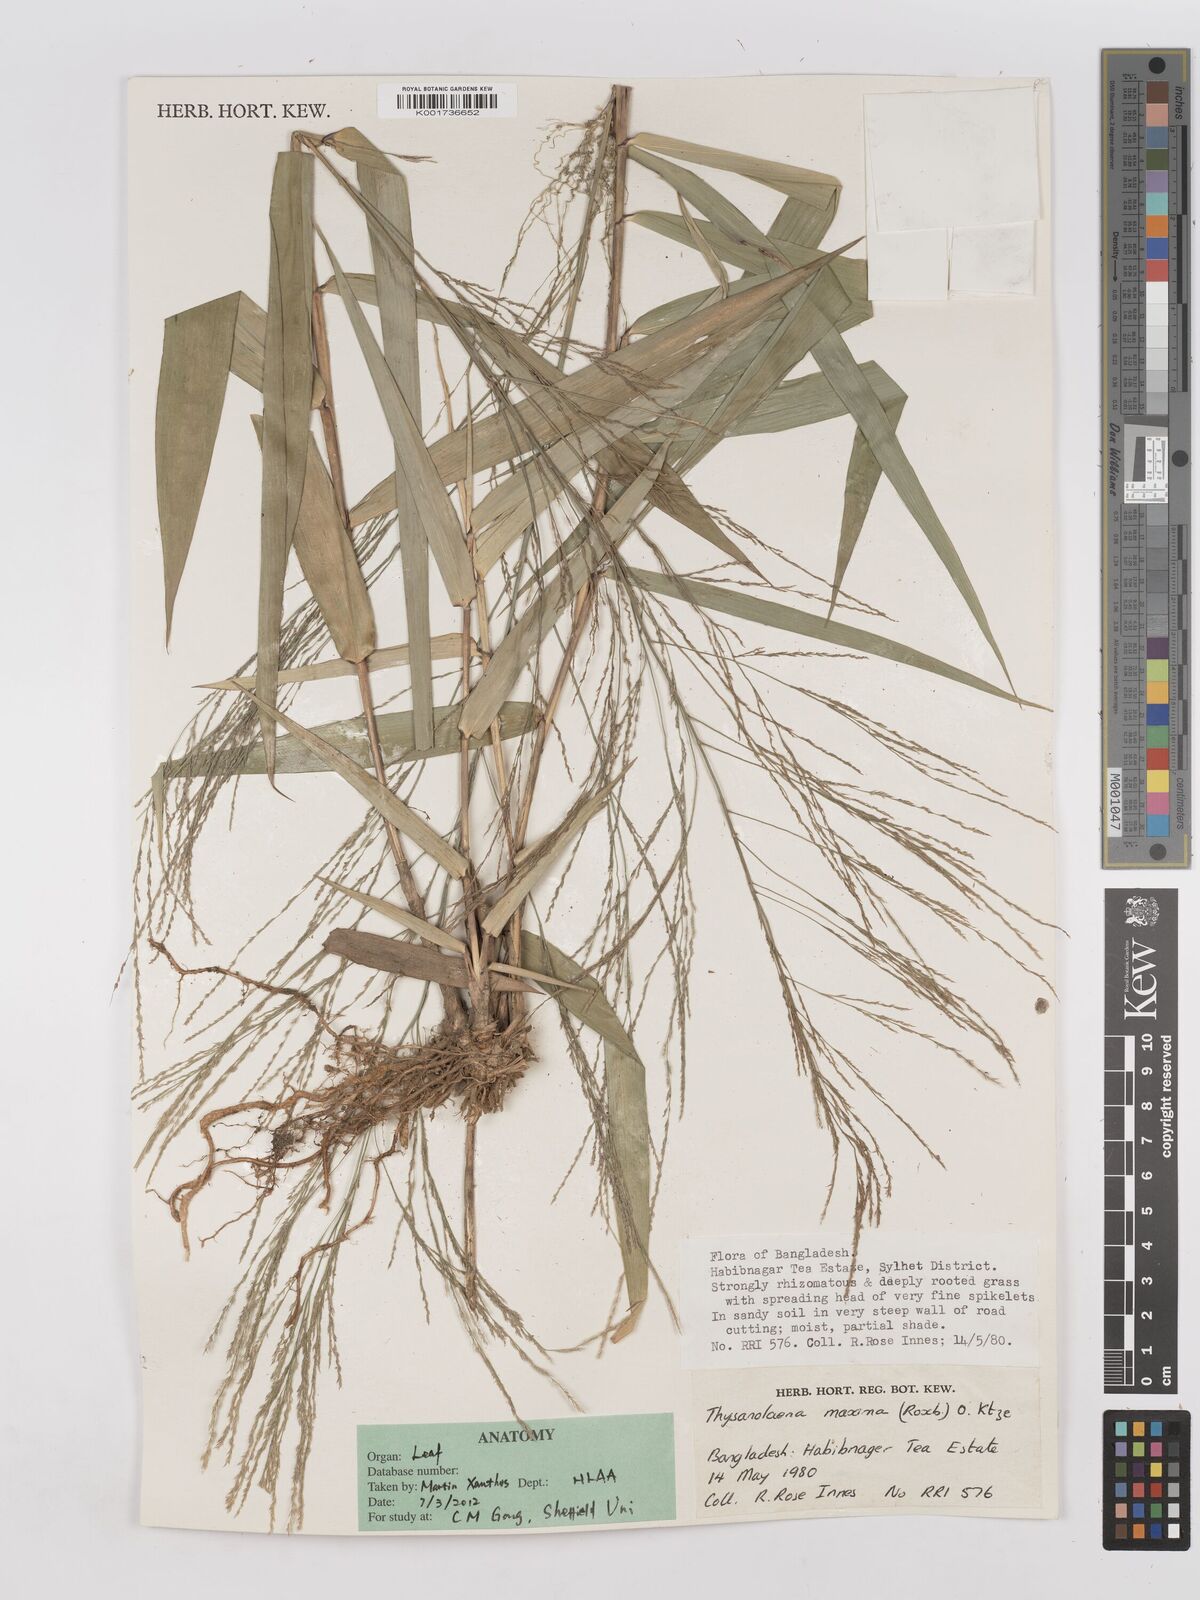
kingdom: Plantae
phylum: Tracheophyta
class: Liliopsida
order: Poales
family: Poaceae
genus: Thysanolaena
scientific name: Thysanolaena latifolia
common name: Tiger grass
